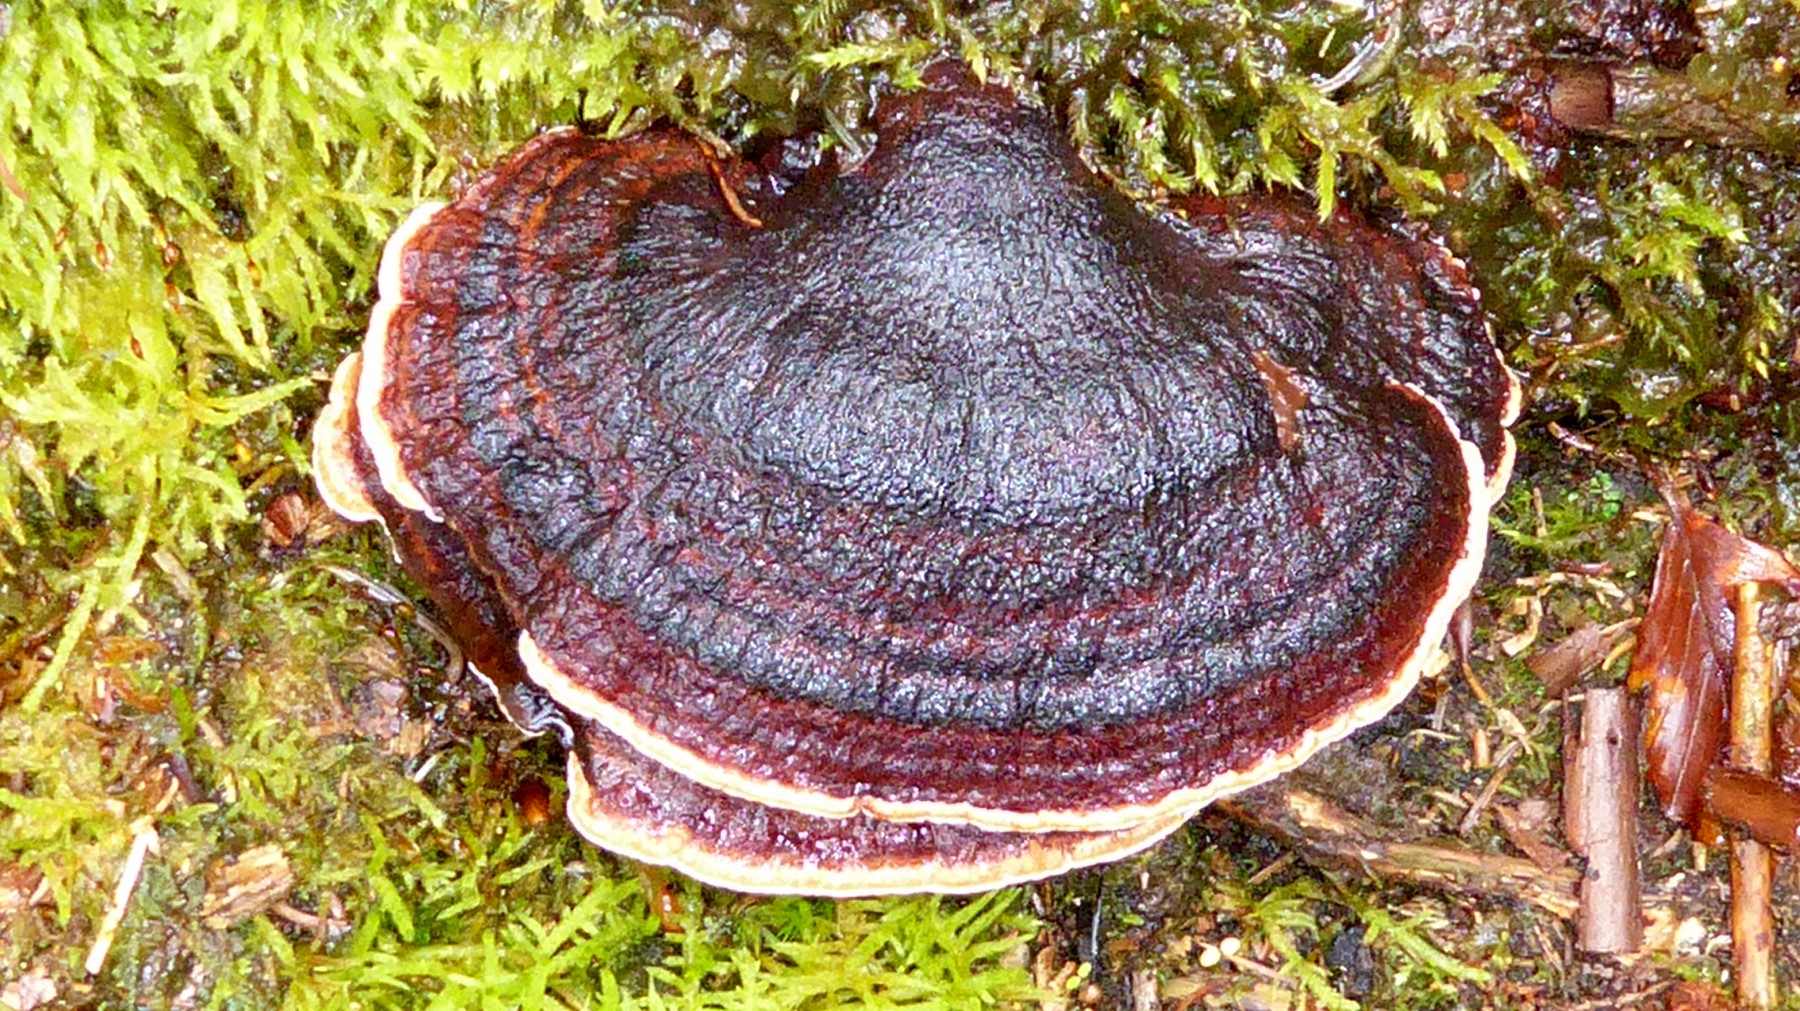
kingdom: Fungi
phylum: Basidiomycota
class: Agaricomycetes
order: Polyporales
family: Ischnodermataceae
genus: Ischnoderma
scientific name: Ischnoderma benzoinum
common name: gran-tjæreporesvamp
